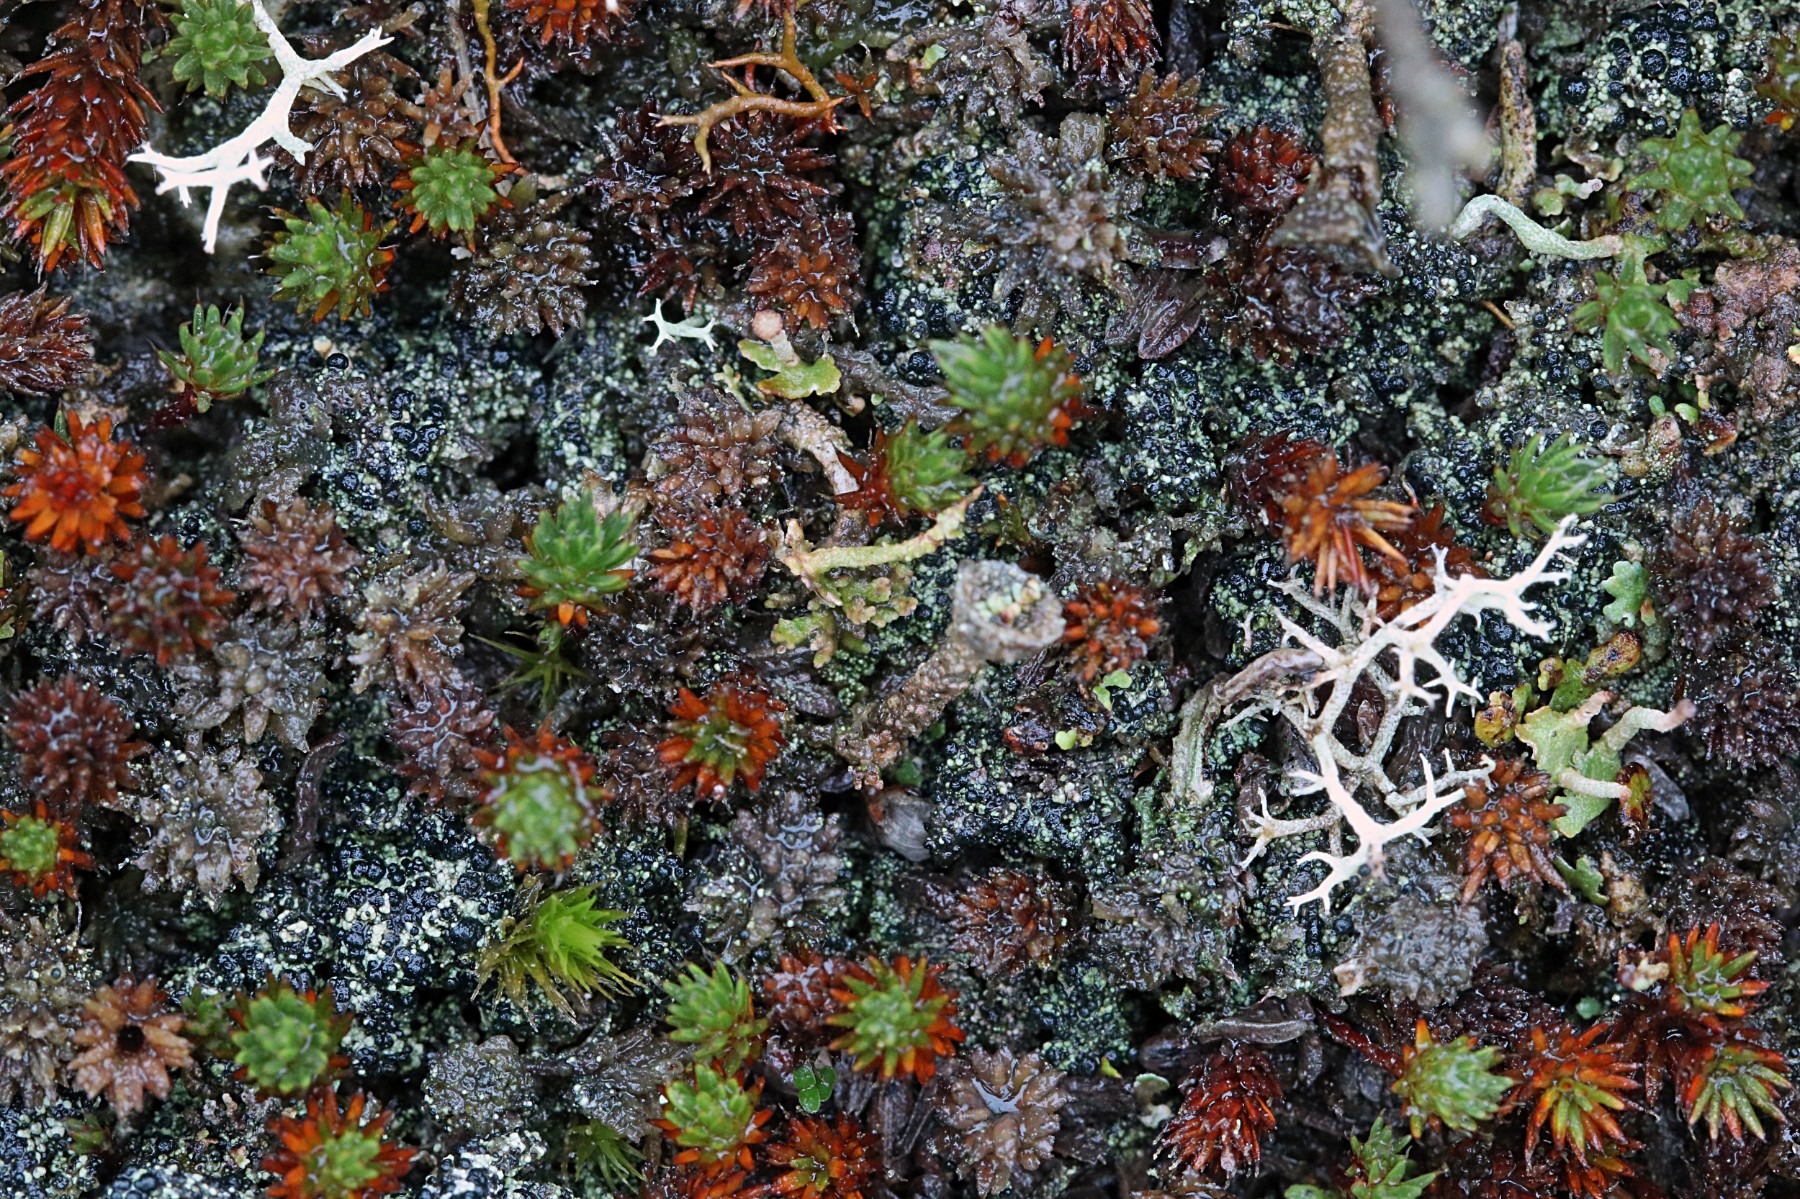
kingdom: Fungi
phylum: Ascomycota
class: Lecanoromycetes
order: Lecanorales
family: Byssolomataceae
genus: Micarea
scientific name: Micarea lignaria
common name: tørve-knaplav
